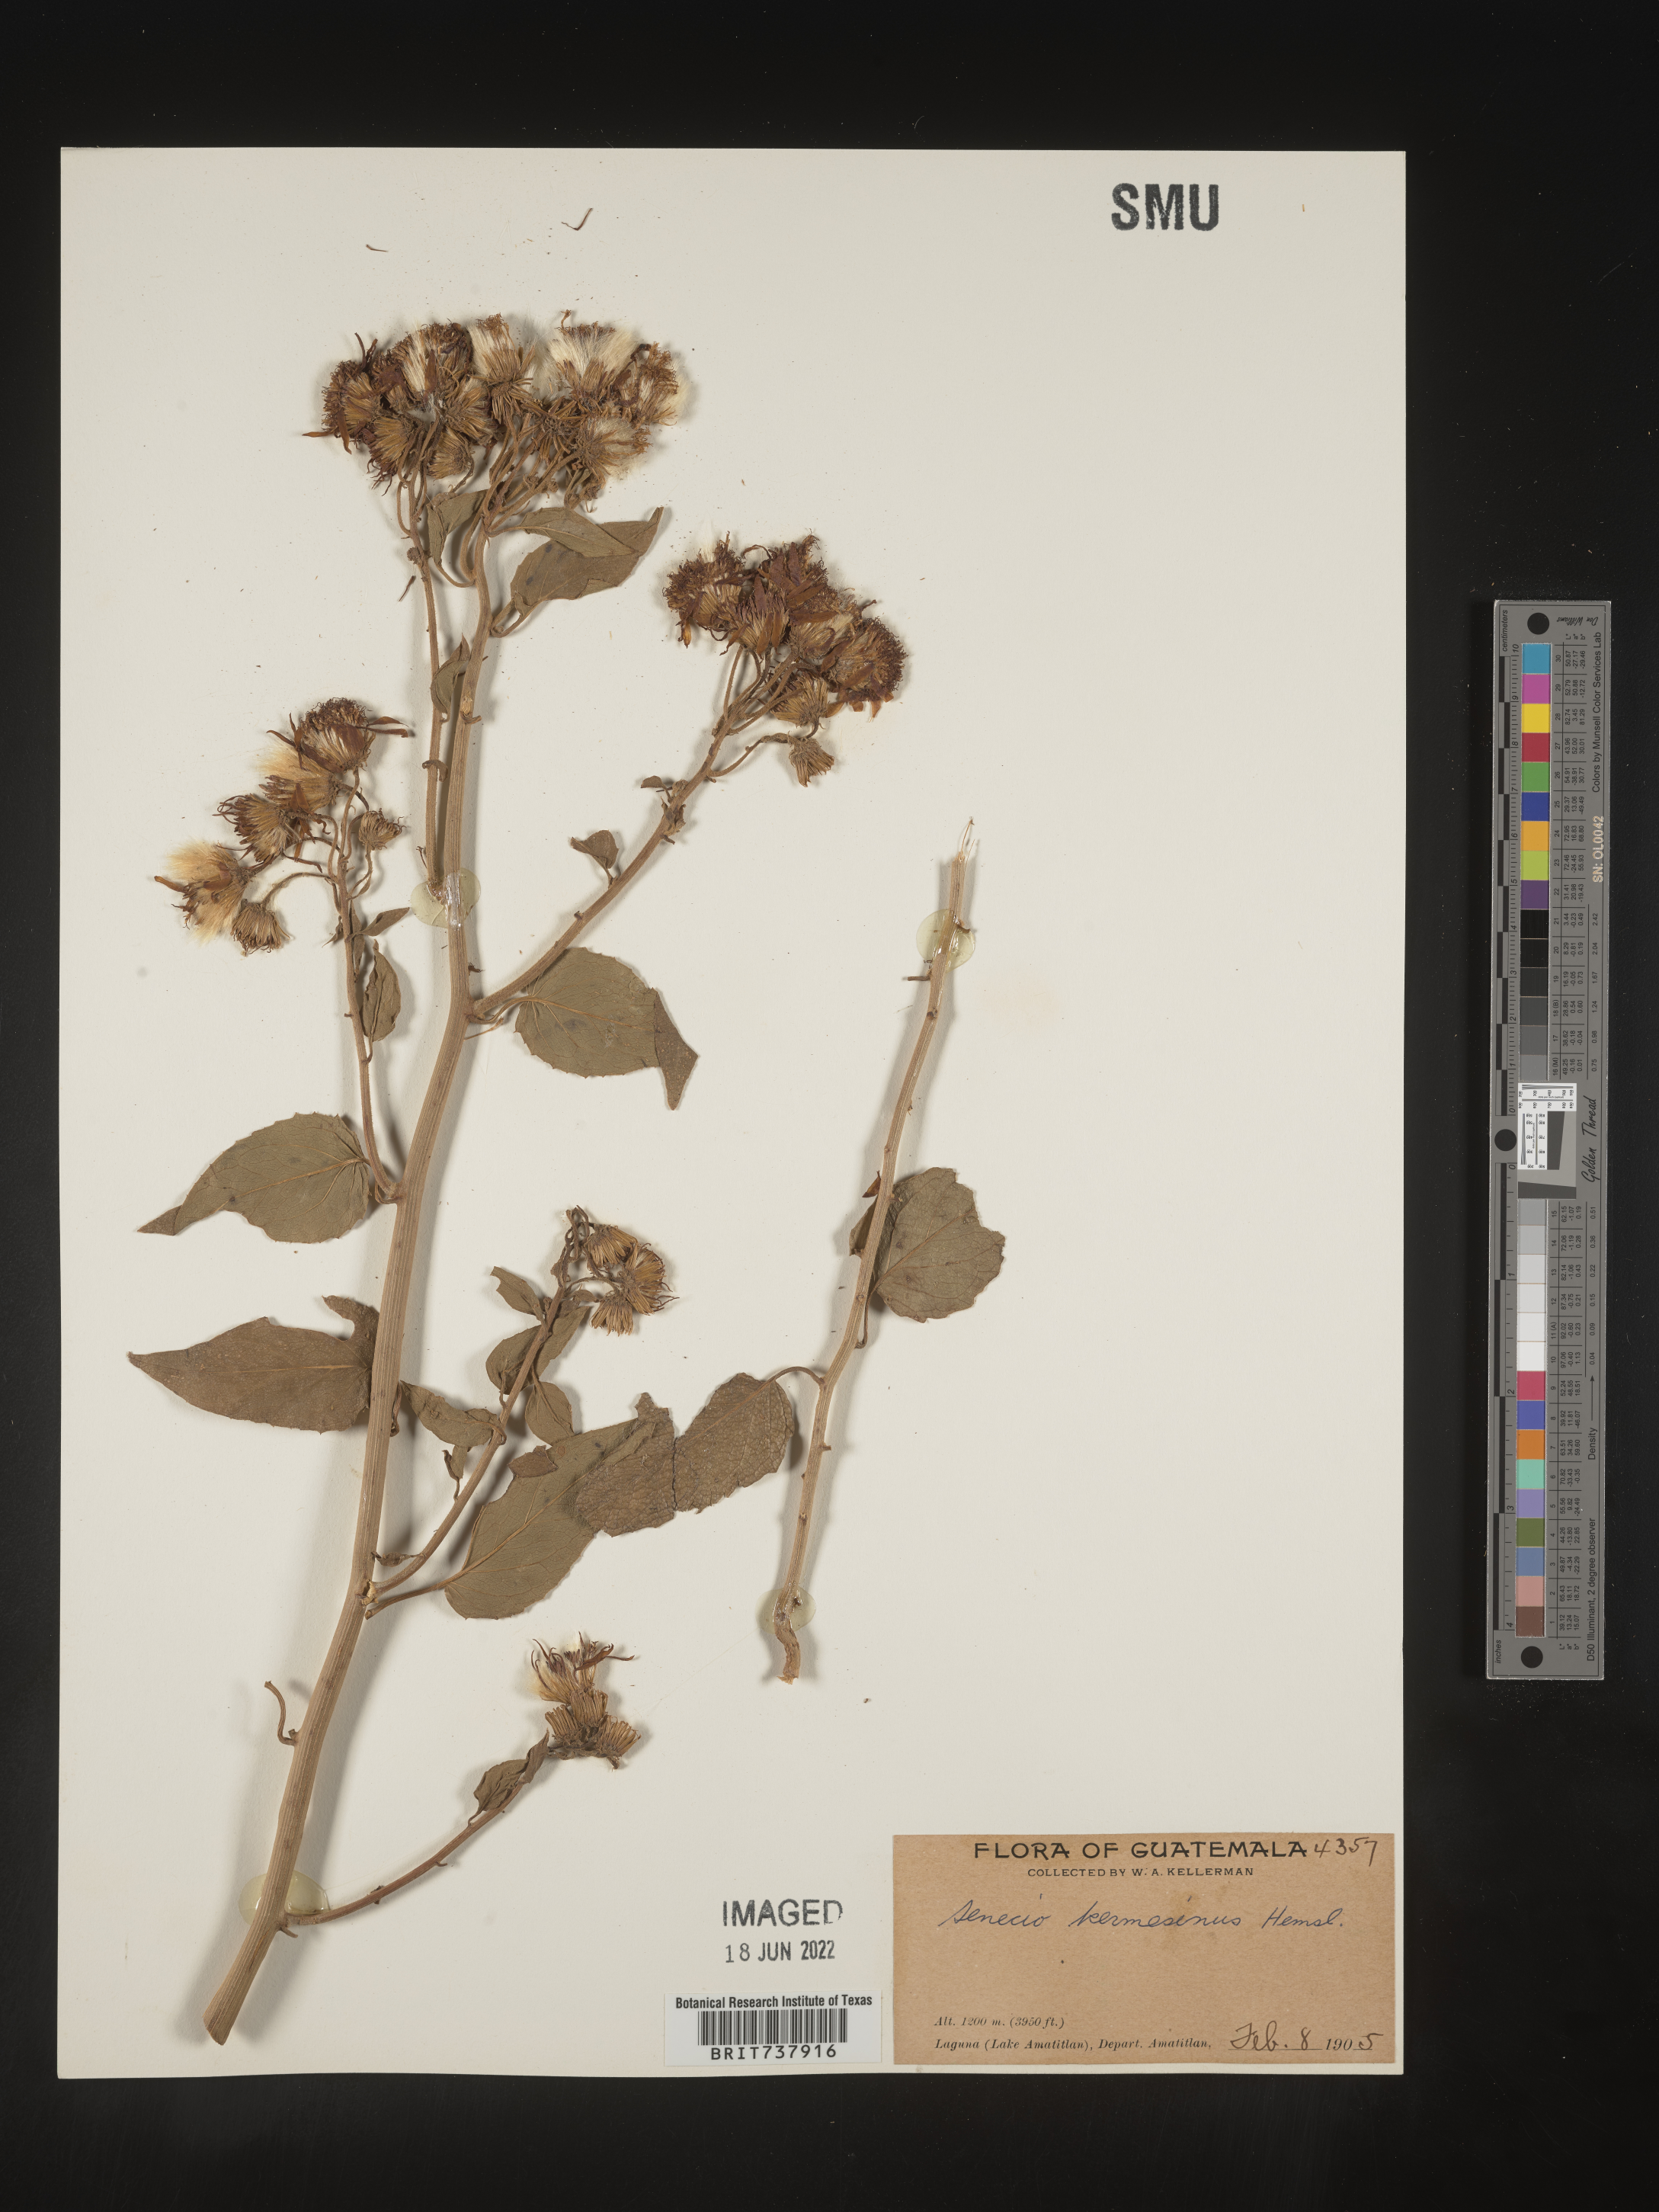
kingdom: Plantae
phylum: Tracheophyta
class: Magnoliopsida
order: Asterales
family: Asteraceae
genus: Pseudogynoxys
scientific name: Pseudogynoxys
